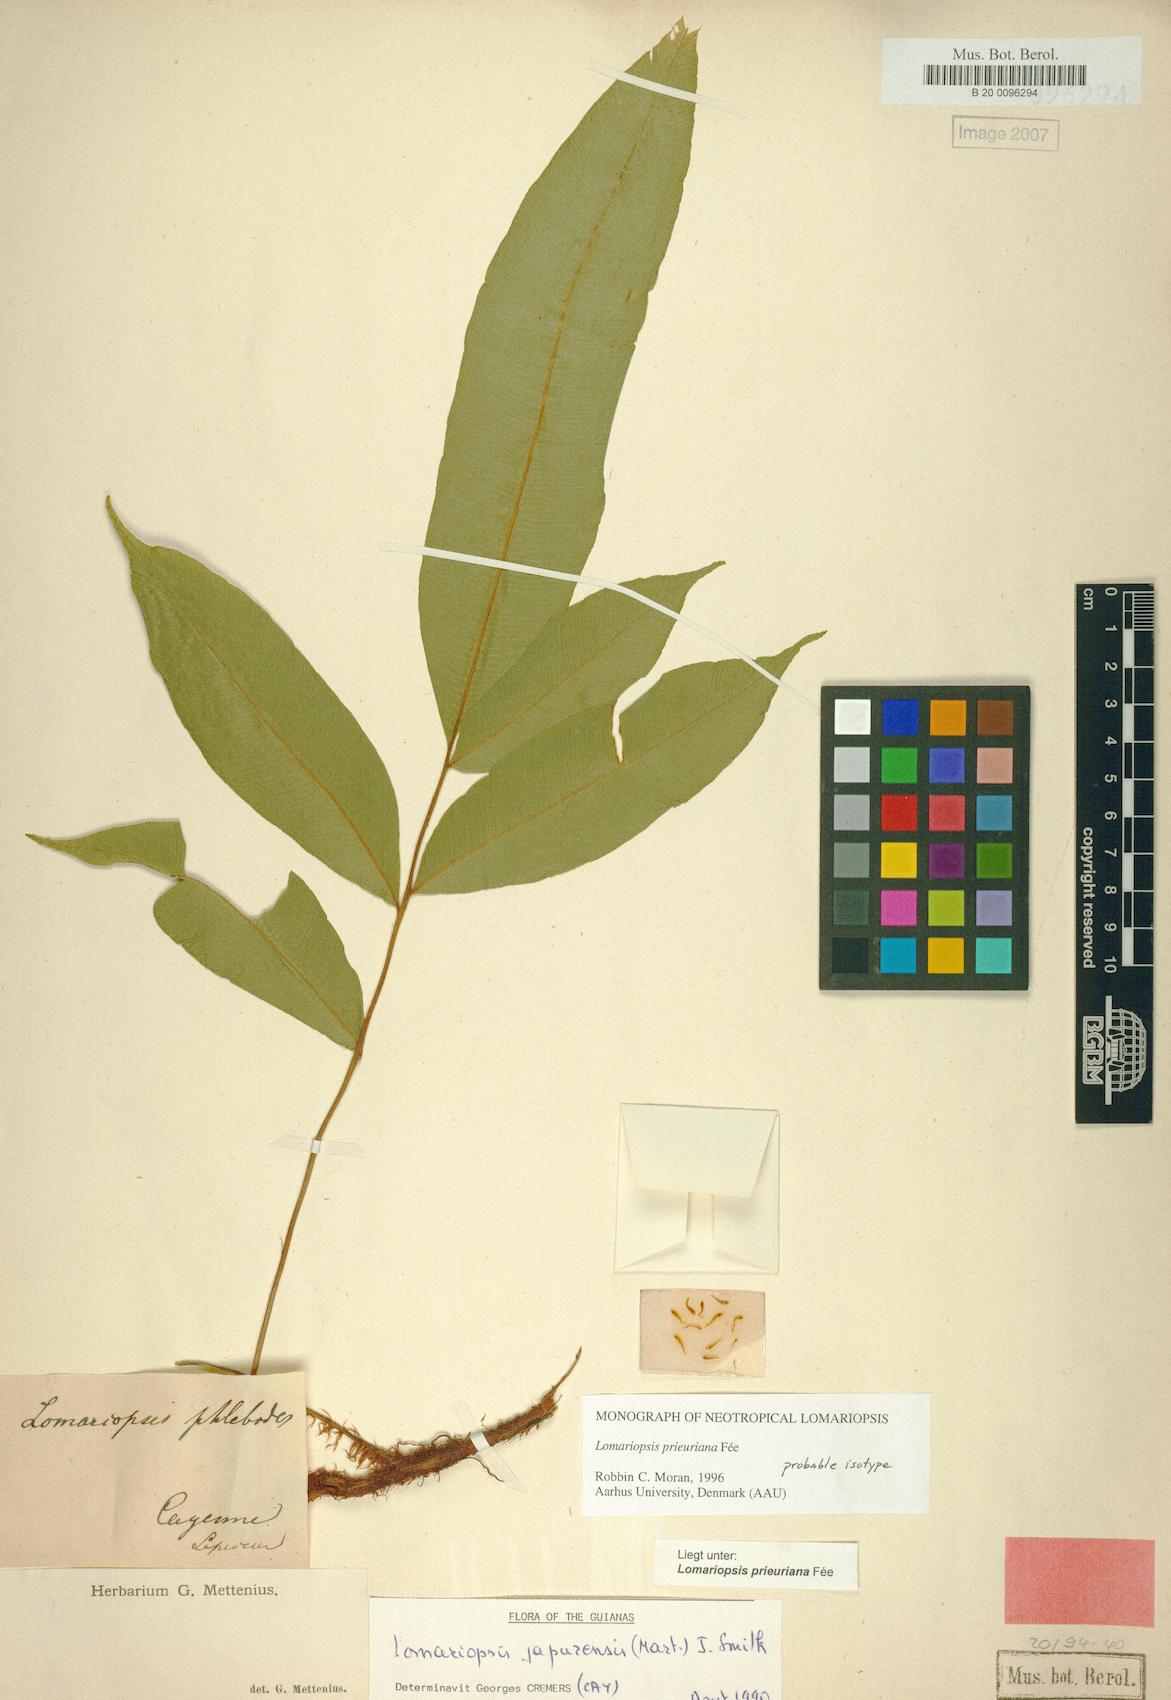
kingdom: Plantae
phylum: Tracheophyta
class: Polypodiopsida
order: Polypodiales
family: Lomariopsidaceae
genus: Lomariopsis
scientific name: Lomariopsis prieuriana
